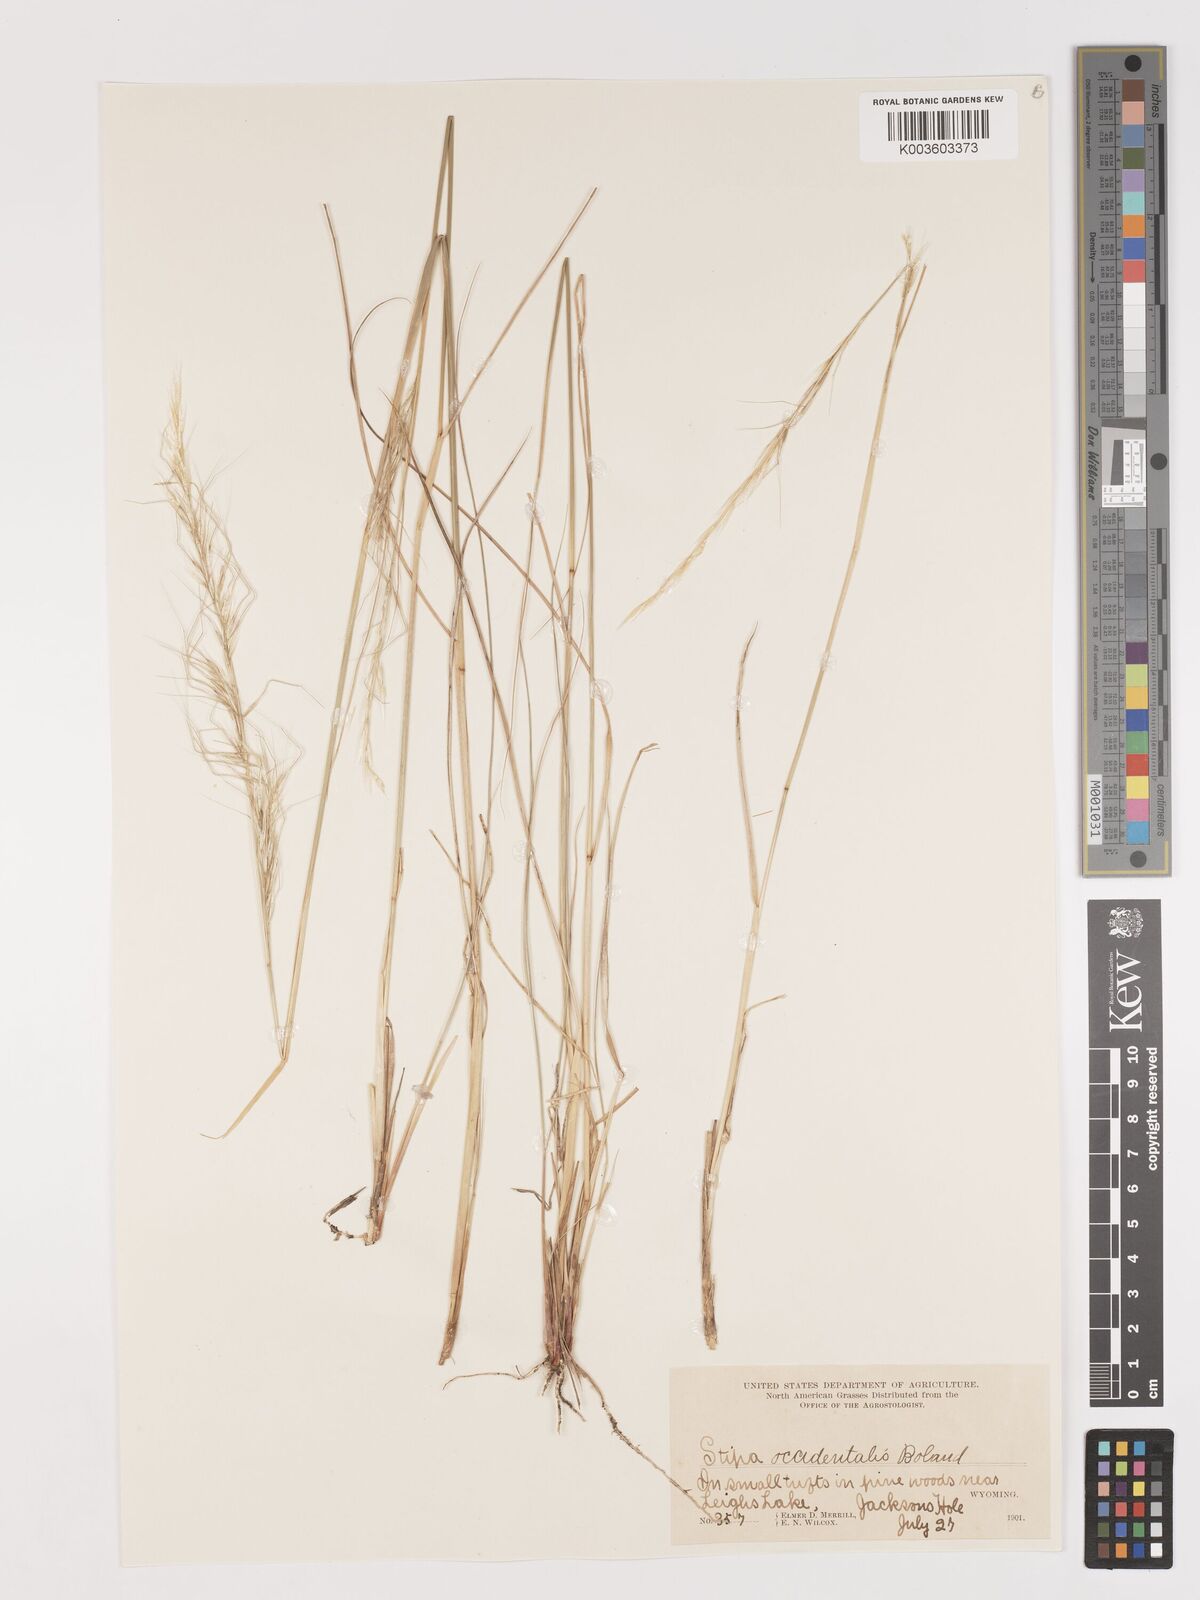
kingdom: Plantae
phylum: Tracheophyta
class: Liliopsida
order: Poales
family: Poaceae
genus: Eriocoma
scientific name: Eriocoma thurberiana
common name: Thurber's needlegrass
